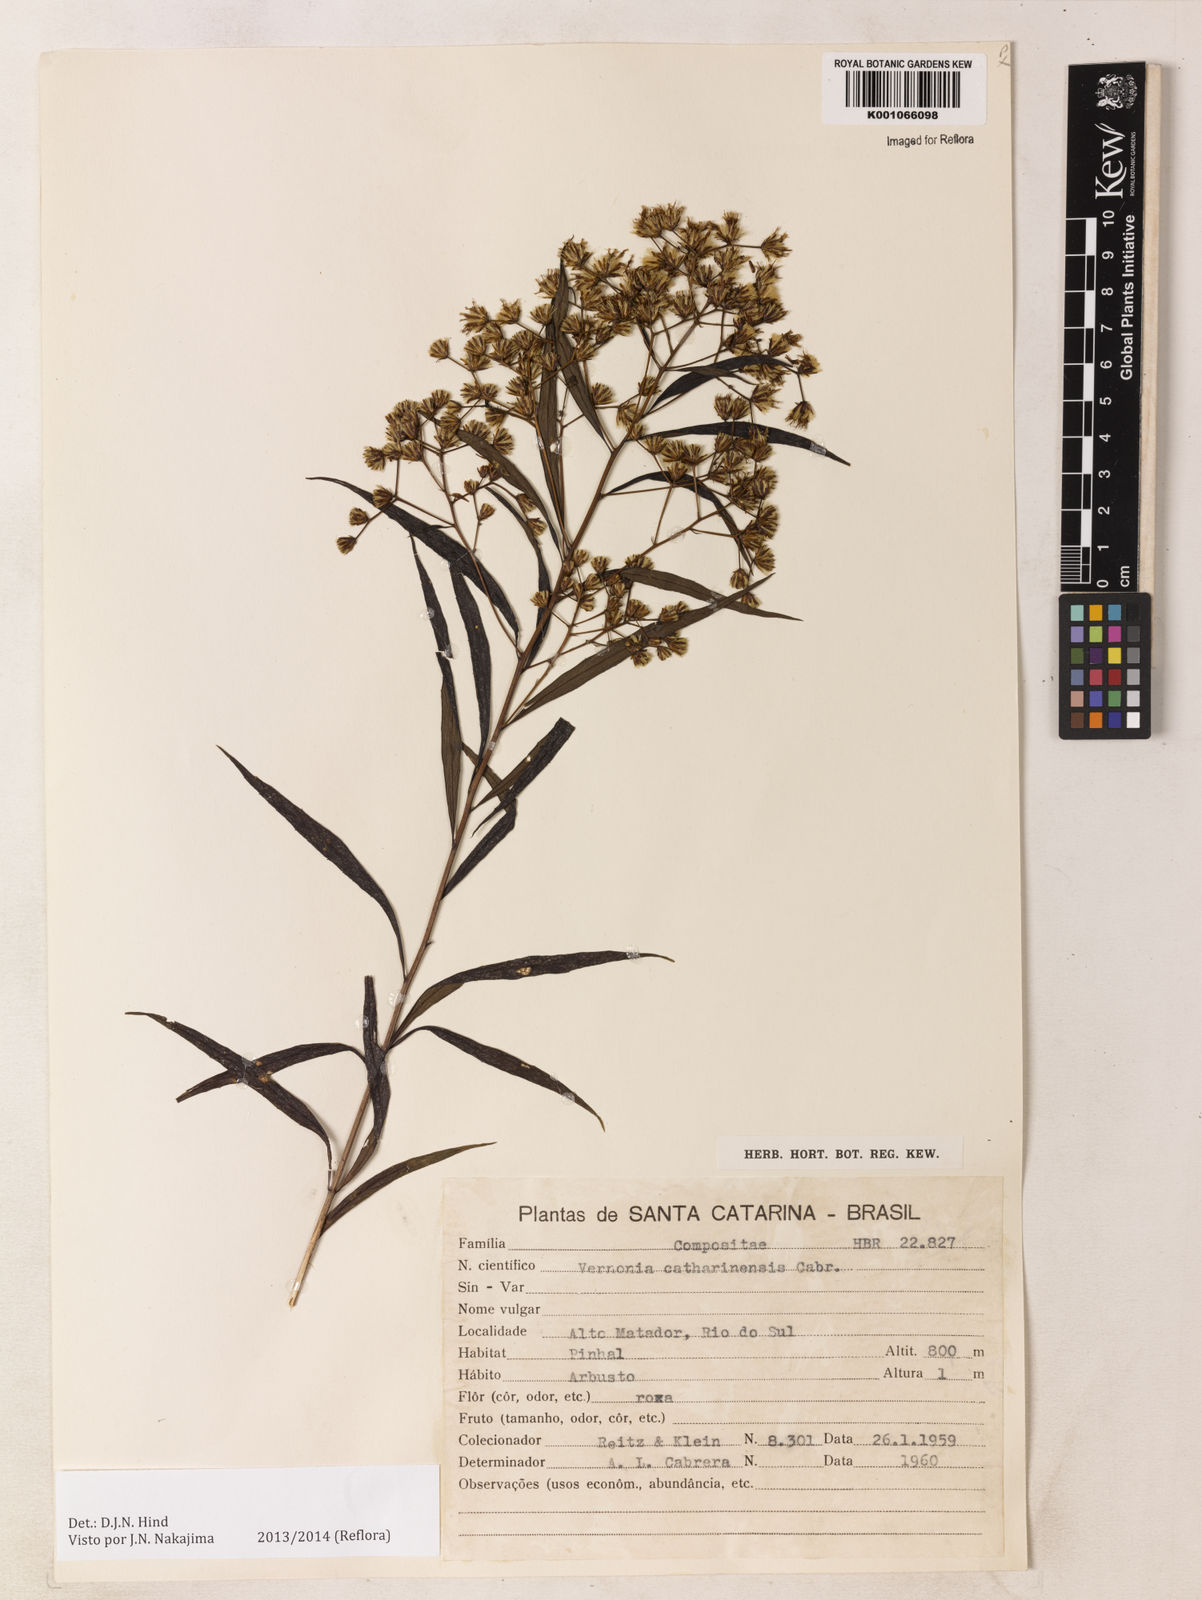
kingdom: Plantae
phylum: Tracheophyta
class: Magnoliopsida
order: Asterales
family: Asteraceae
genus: Vernonanthura
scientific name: Vernonanthura catharinensis
